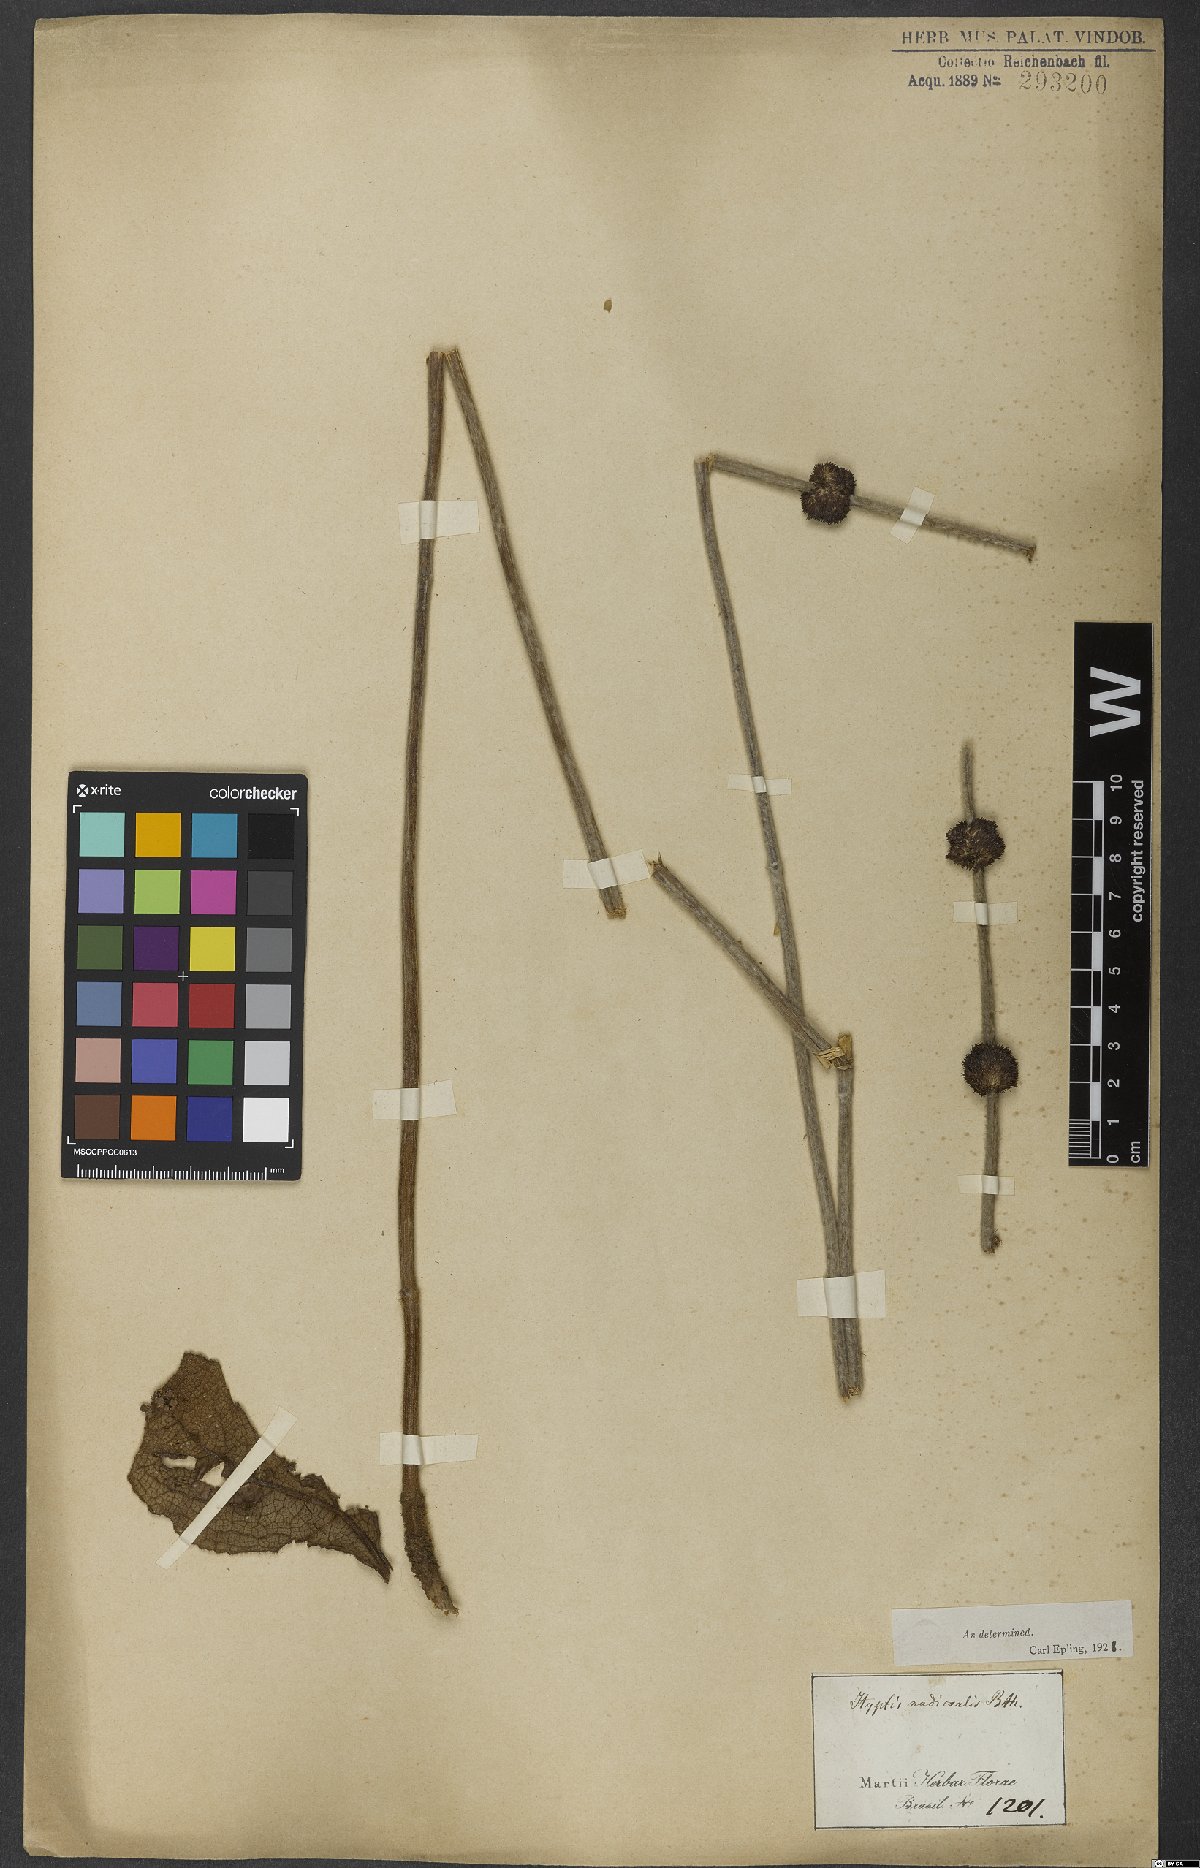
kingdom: Plantae
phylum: Tracheophyta
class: Magnoliopsida
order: Lamiales
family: Lamiaceae
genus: Hyptis
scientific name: Hyptis nudicaulis
